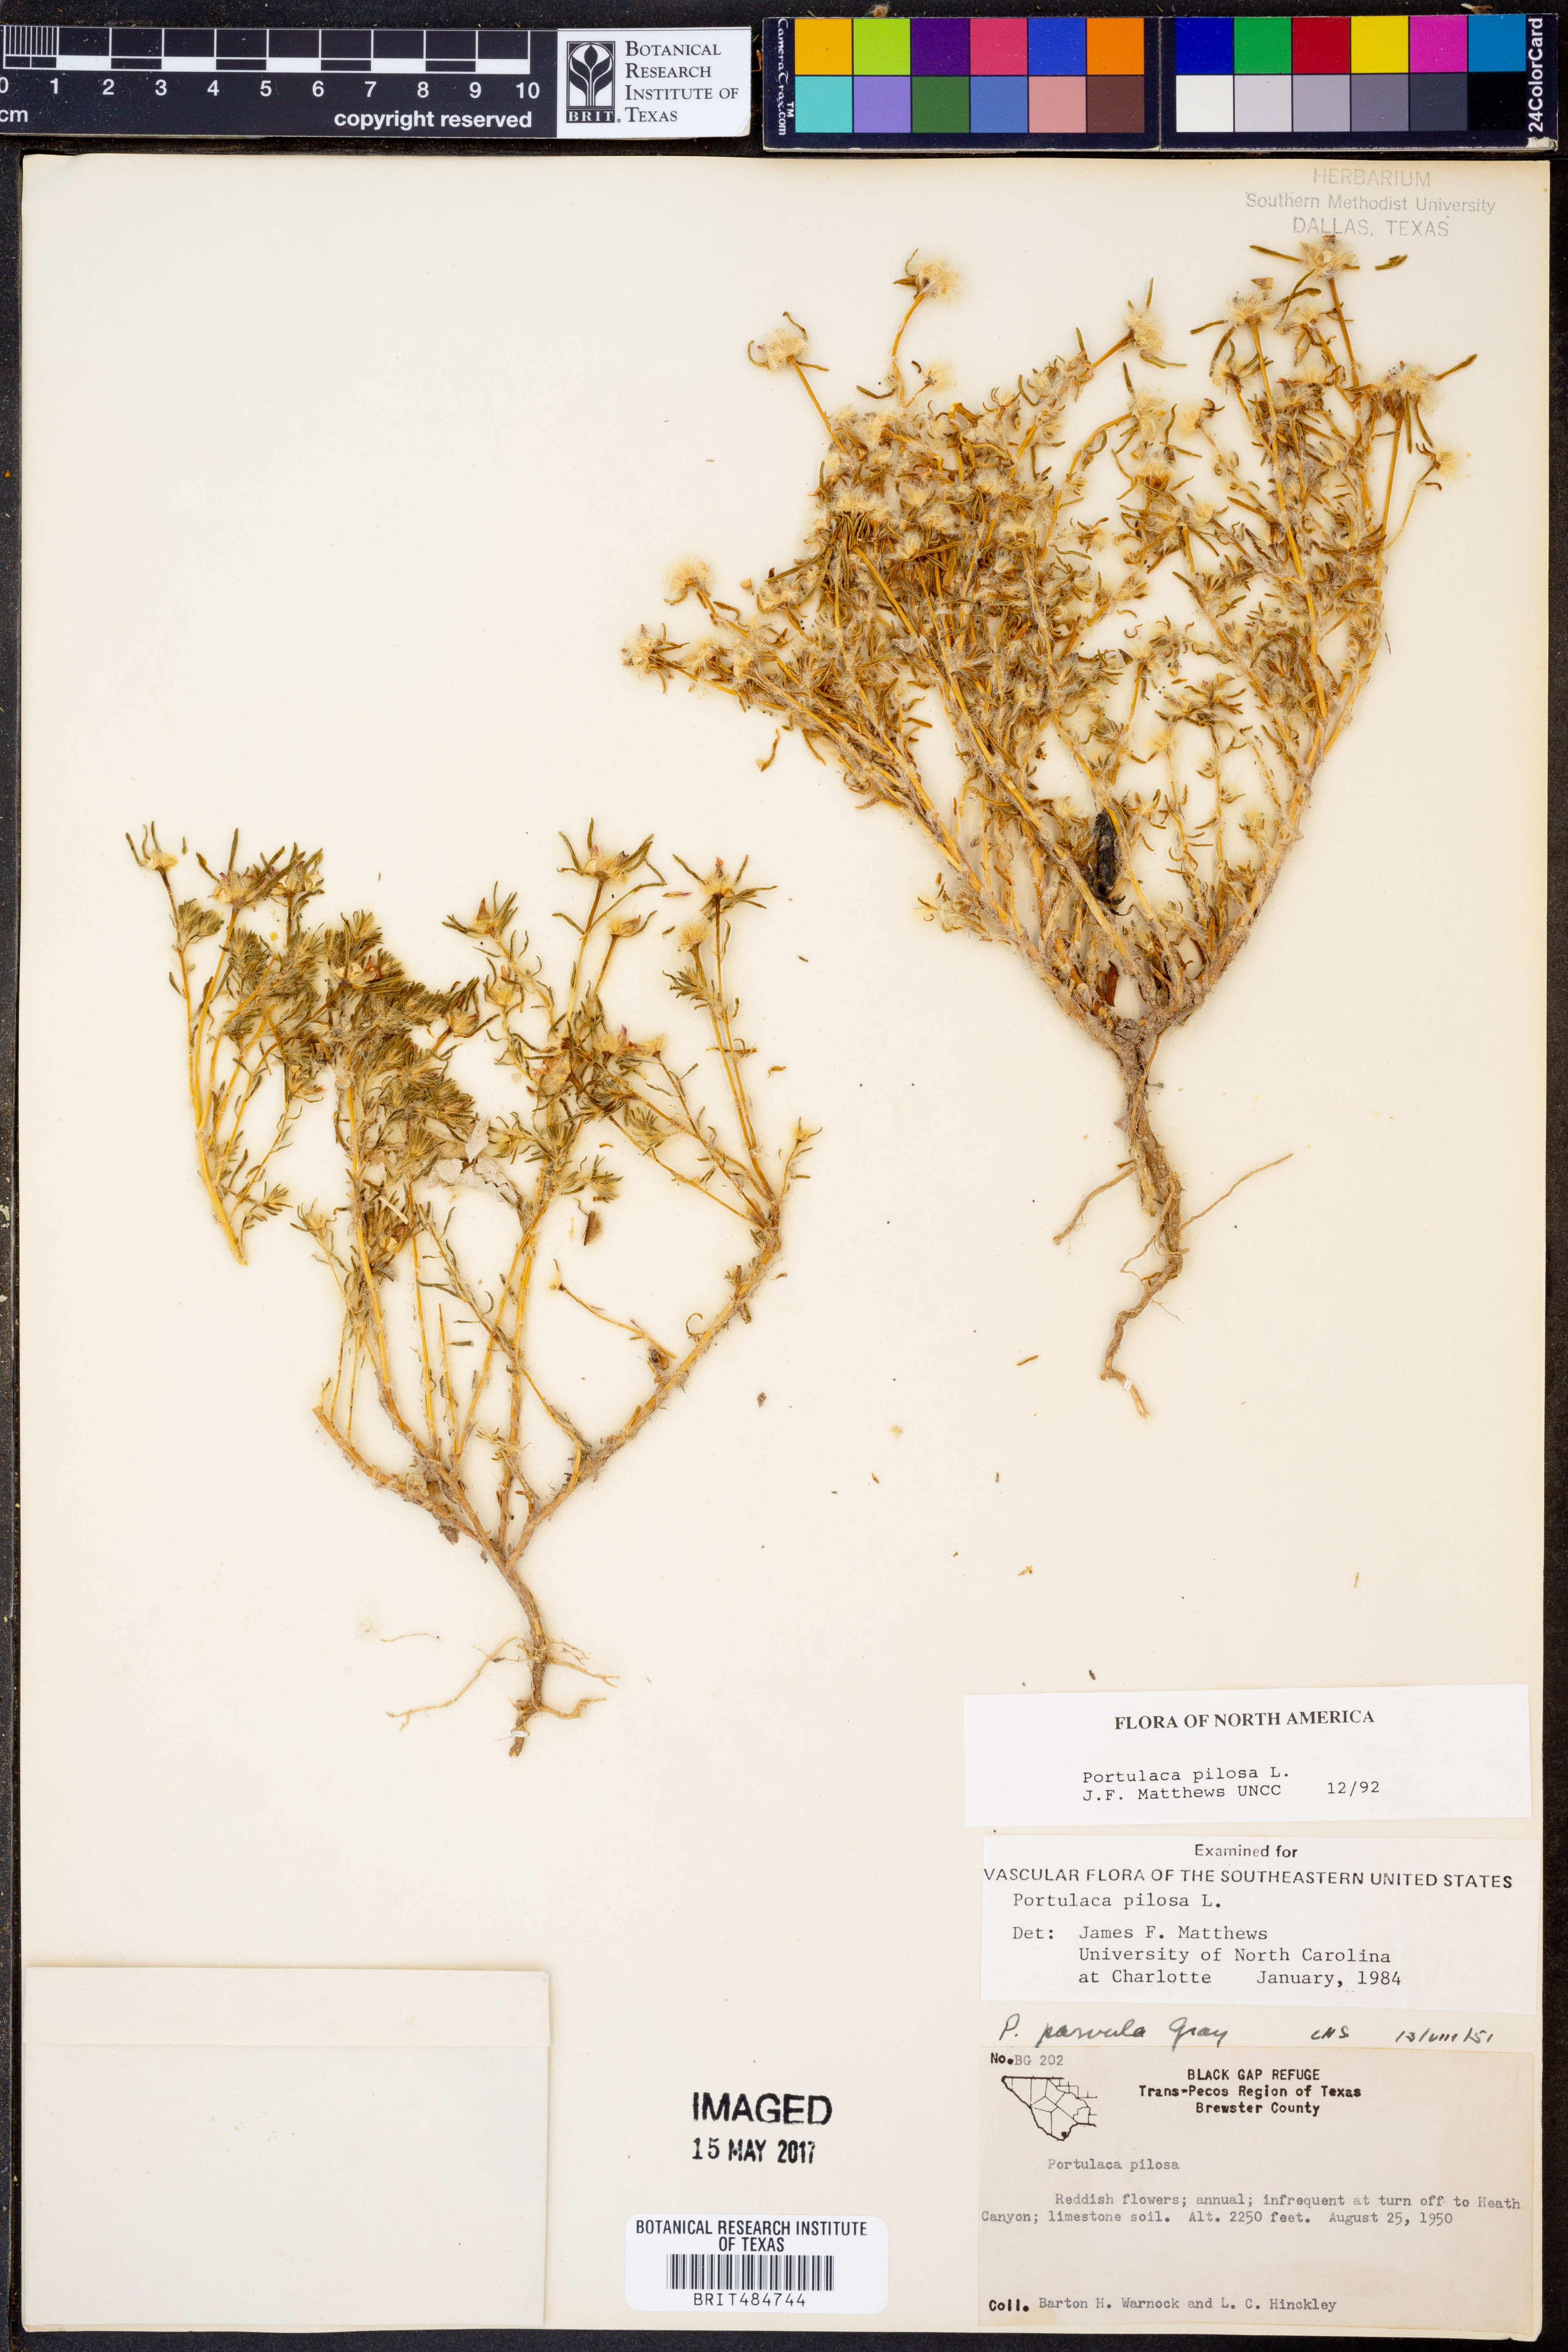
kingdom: Plantae
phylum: Tracheophyta
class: Magnoliopsida
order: Caryophyllales
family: Portulacaceae
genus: Portulaca
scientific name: Portulaca pilosa
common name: Kiss me quick
